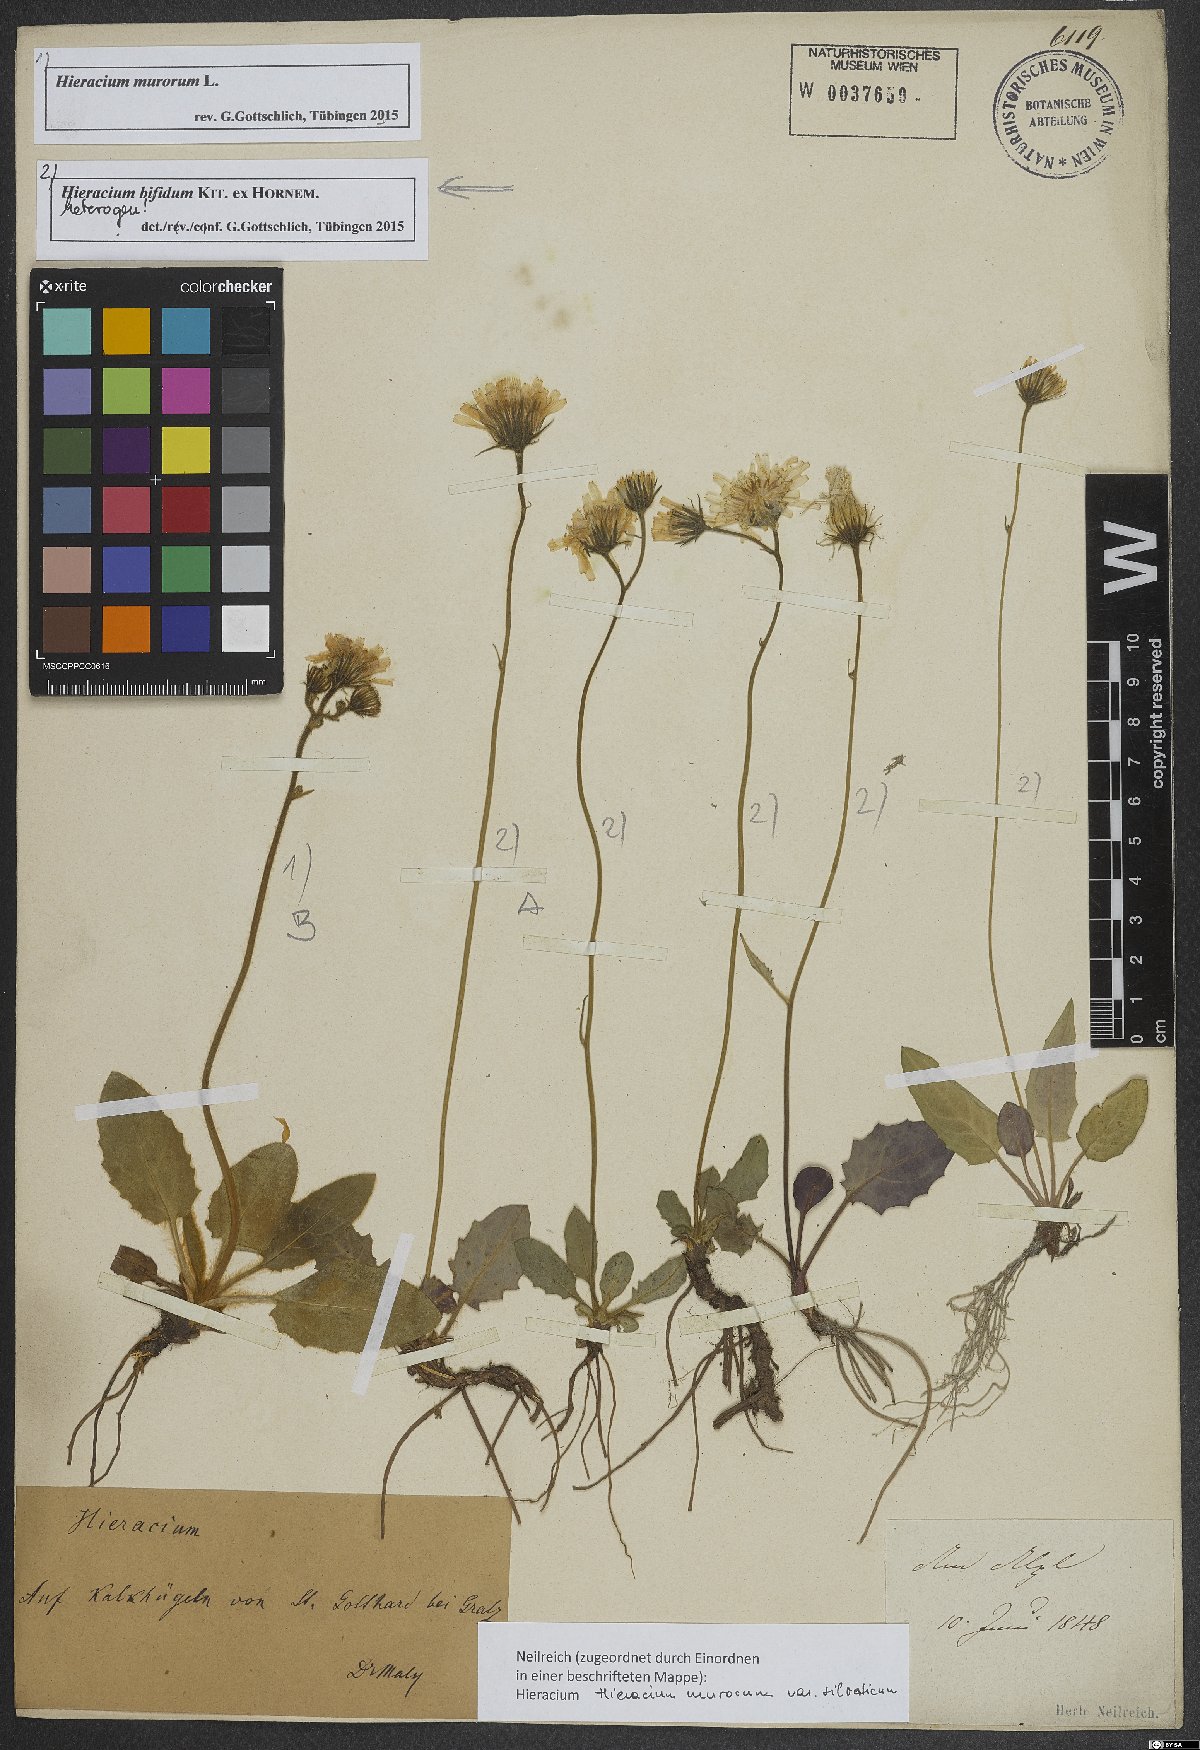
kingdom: Plantae
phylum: Tracheophyta
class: Magnoliopsida
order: Asterales
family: Asteraceae
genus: Hieracium
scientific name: Hieracium murorum
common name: Wall hawkweed
